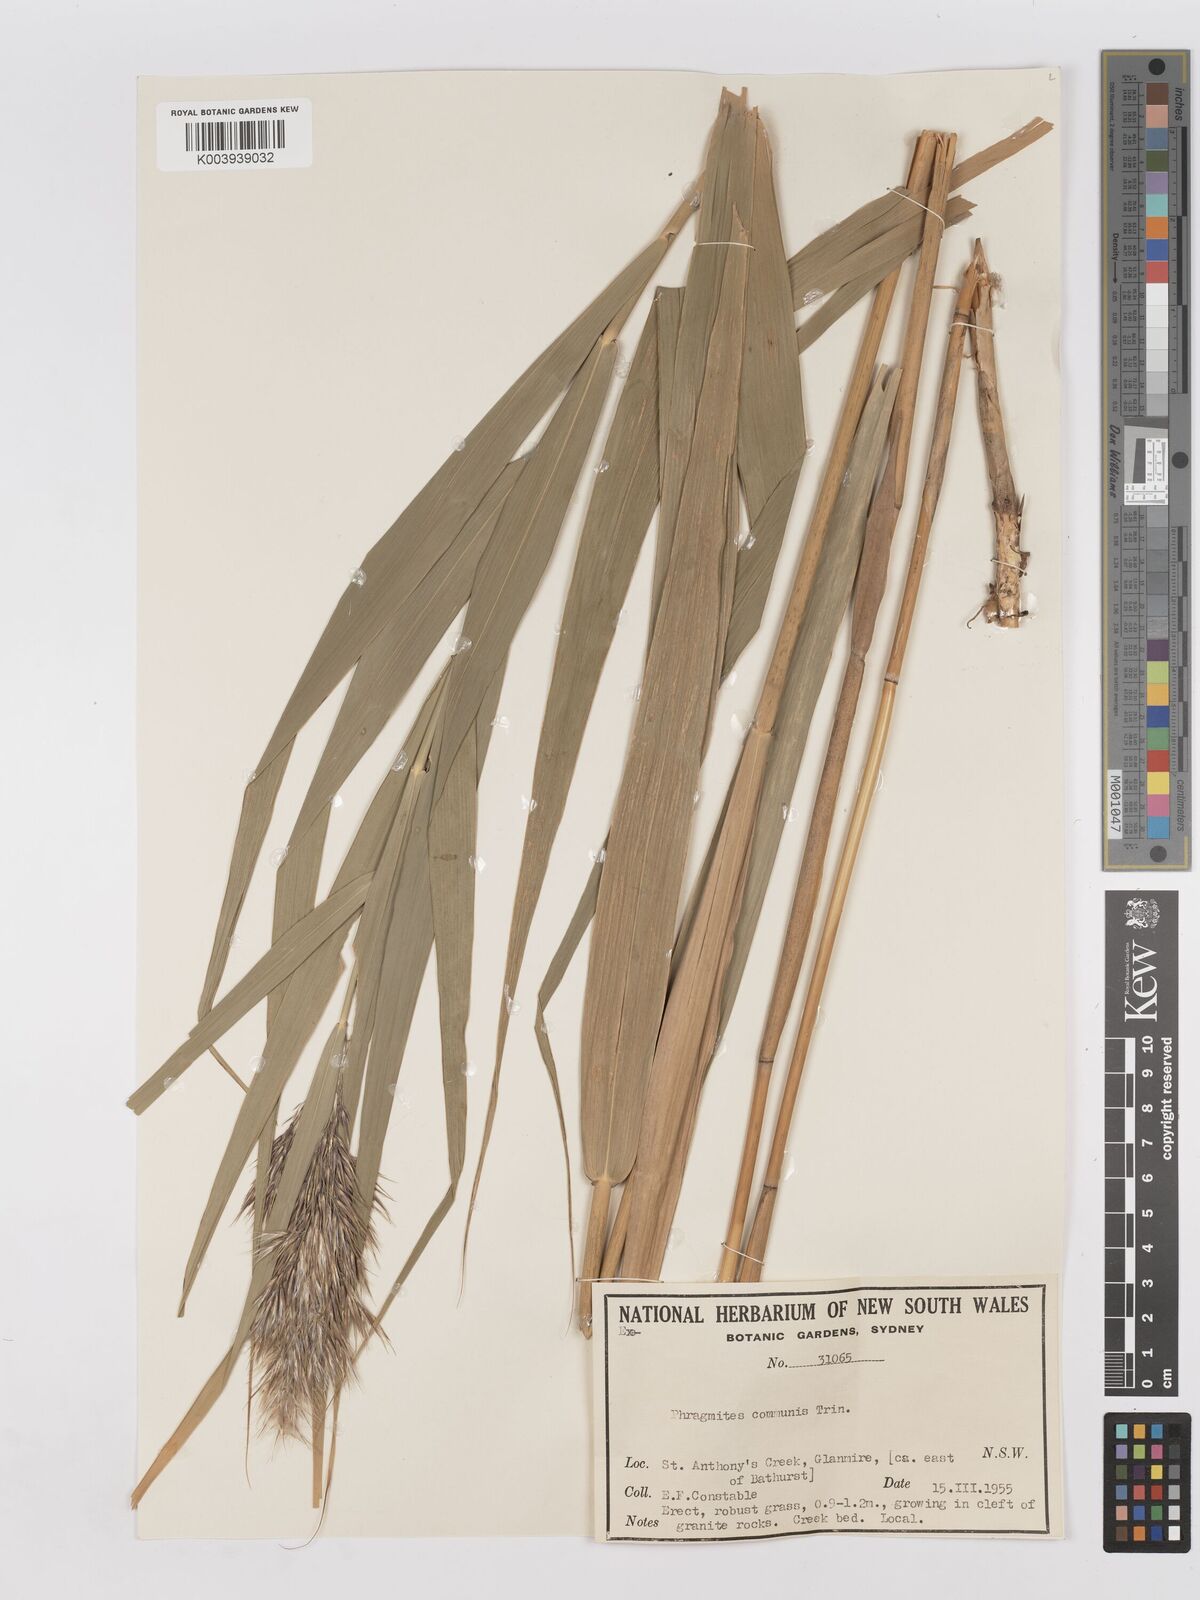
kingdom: Plantae
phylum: Tracheophyta
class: Liliopsida
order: Poales
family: Poaceae
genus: Phragmites
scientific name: Phragmites australis
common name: Common reed
